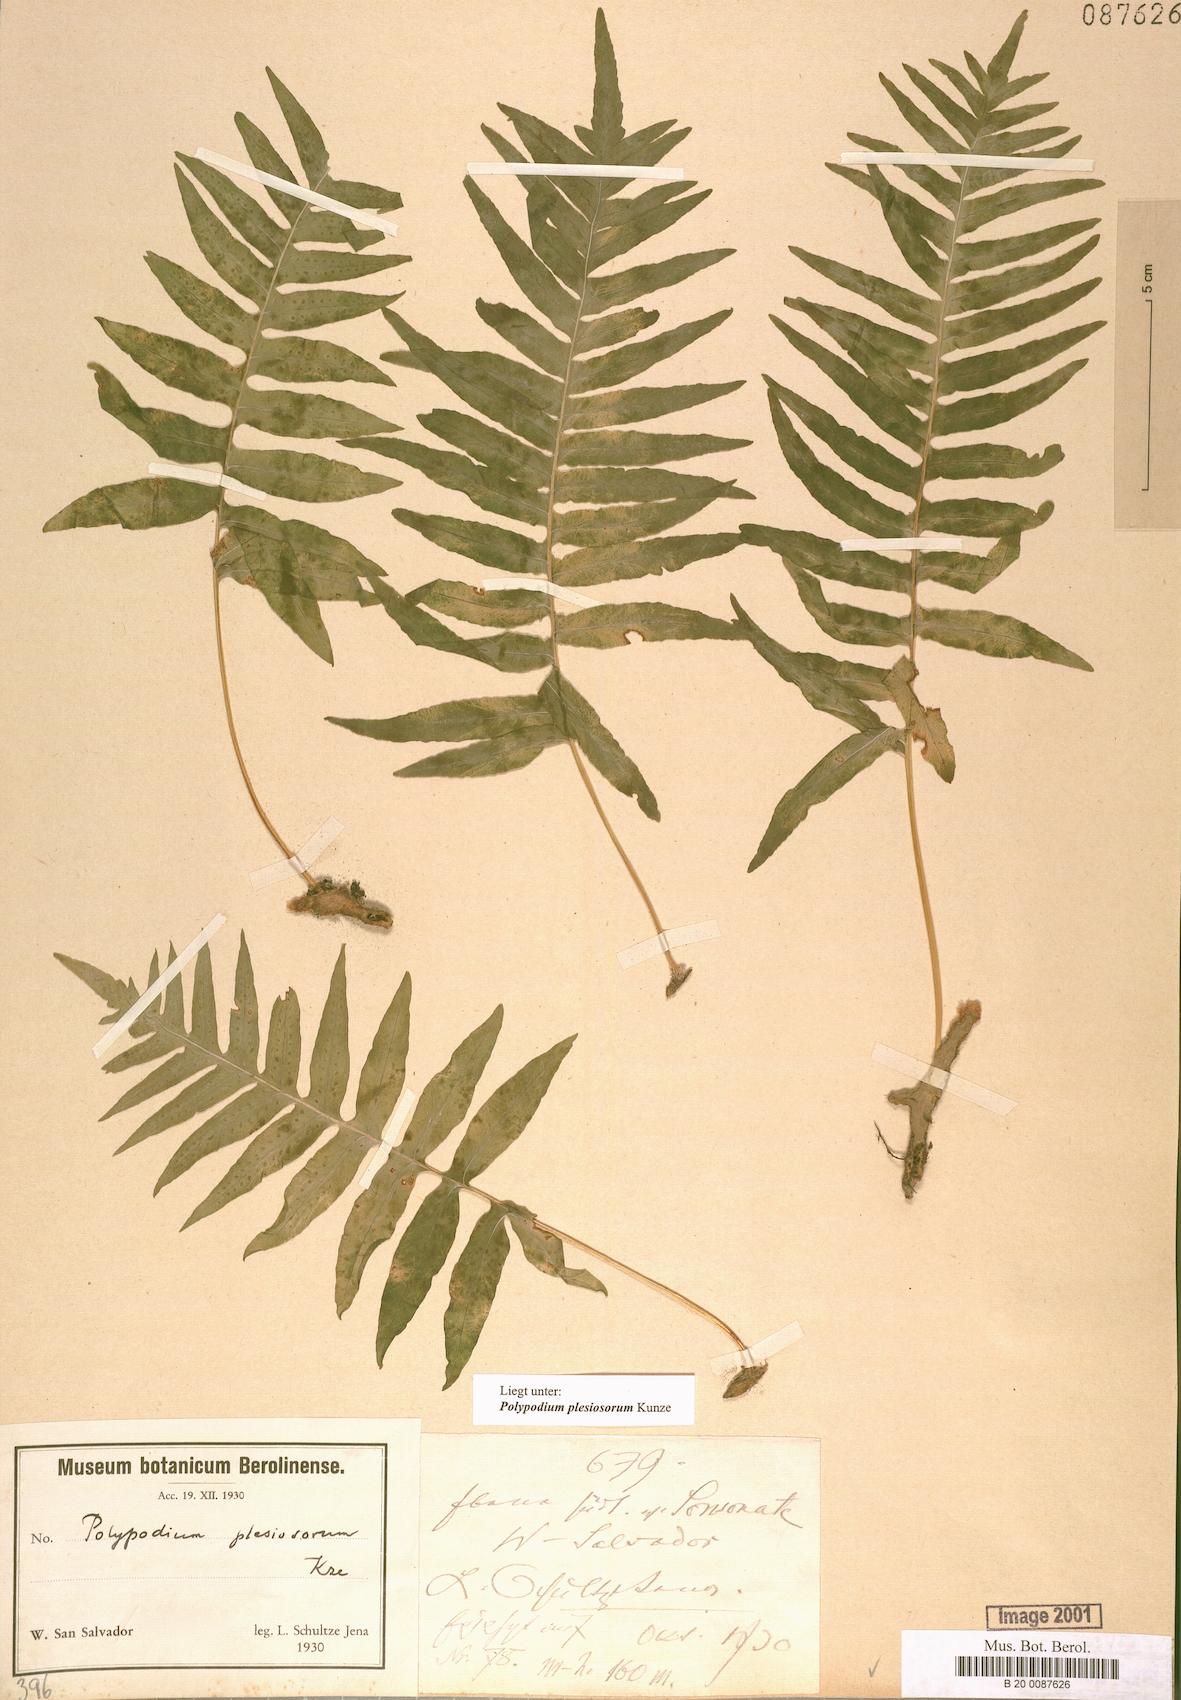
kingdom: Plantae
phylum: Tracheophyta
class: Polypodiopsida
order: Polypodiales
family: Polypodiaceae
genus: Polypodium
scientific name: Polypodium plesiosorum
